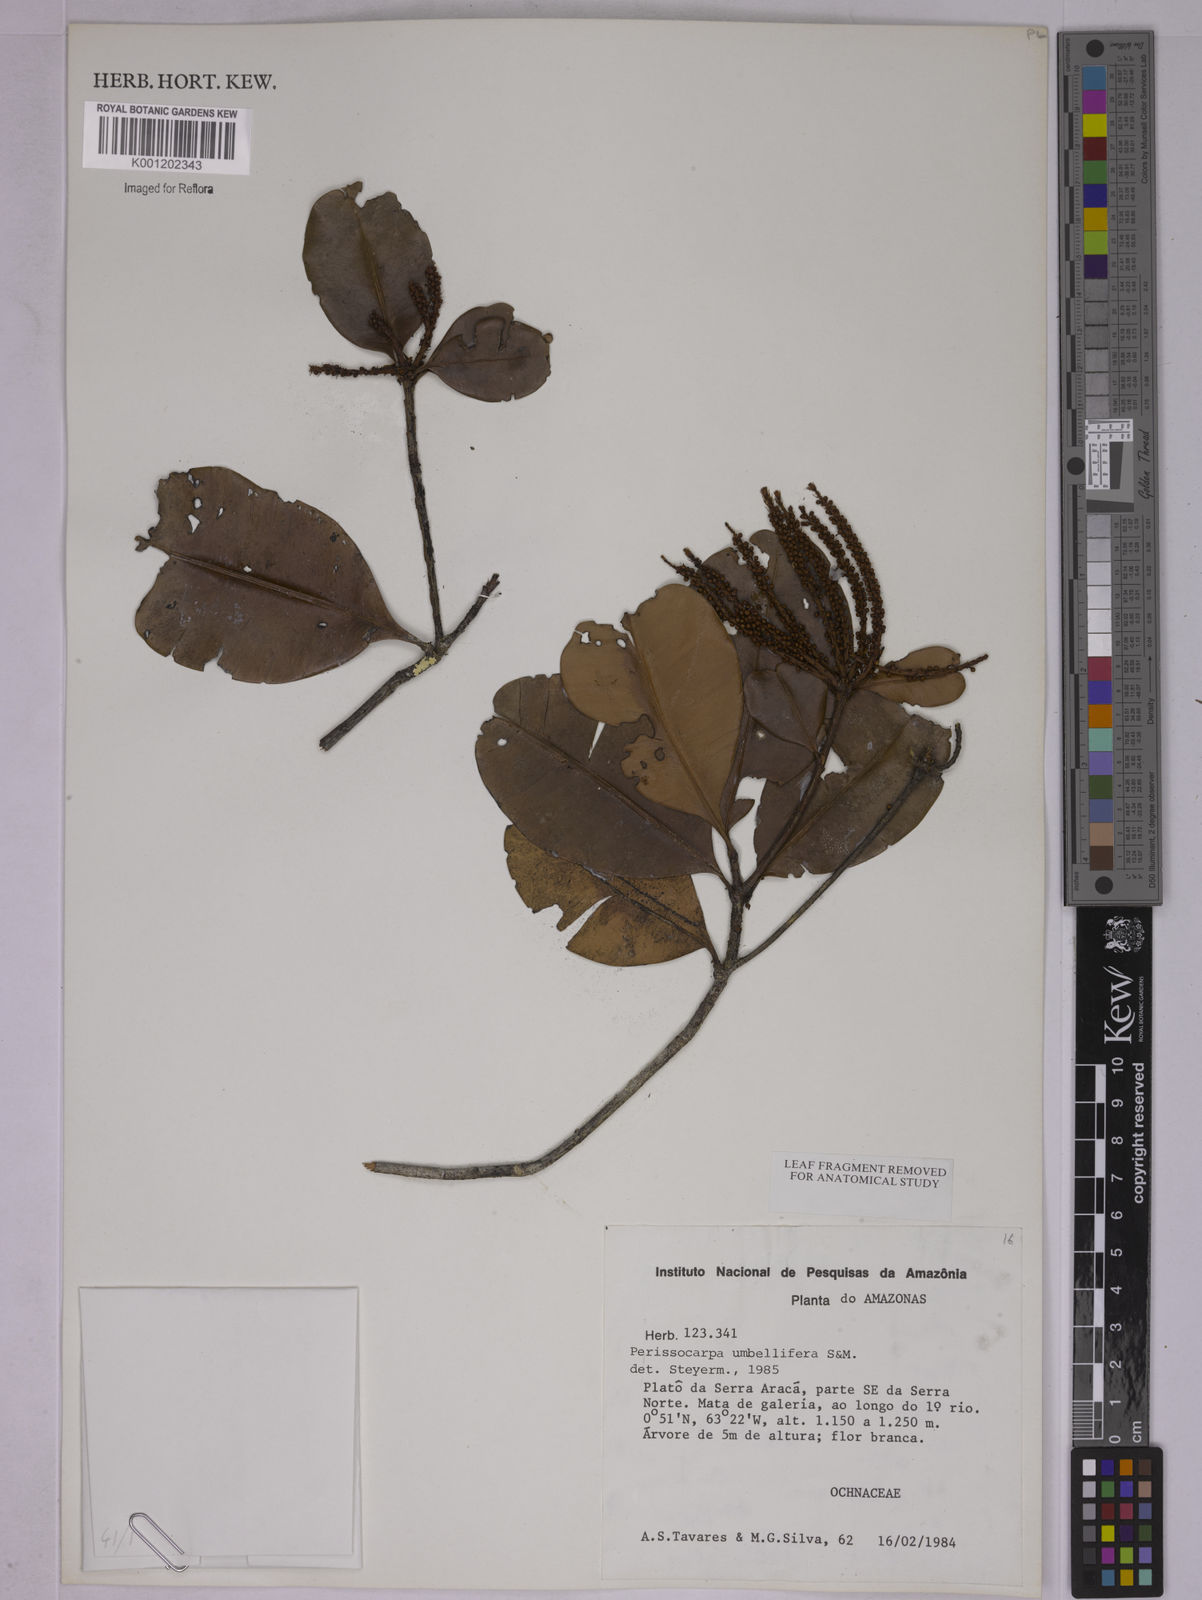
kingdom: Plantae
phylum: Tracheophyta
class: Magnoliopsida
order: Malpighiales
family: Ochnaceae
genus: Perissocarpa
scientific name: Perissocarpa umbellifera
